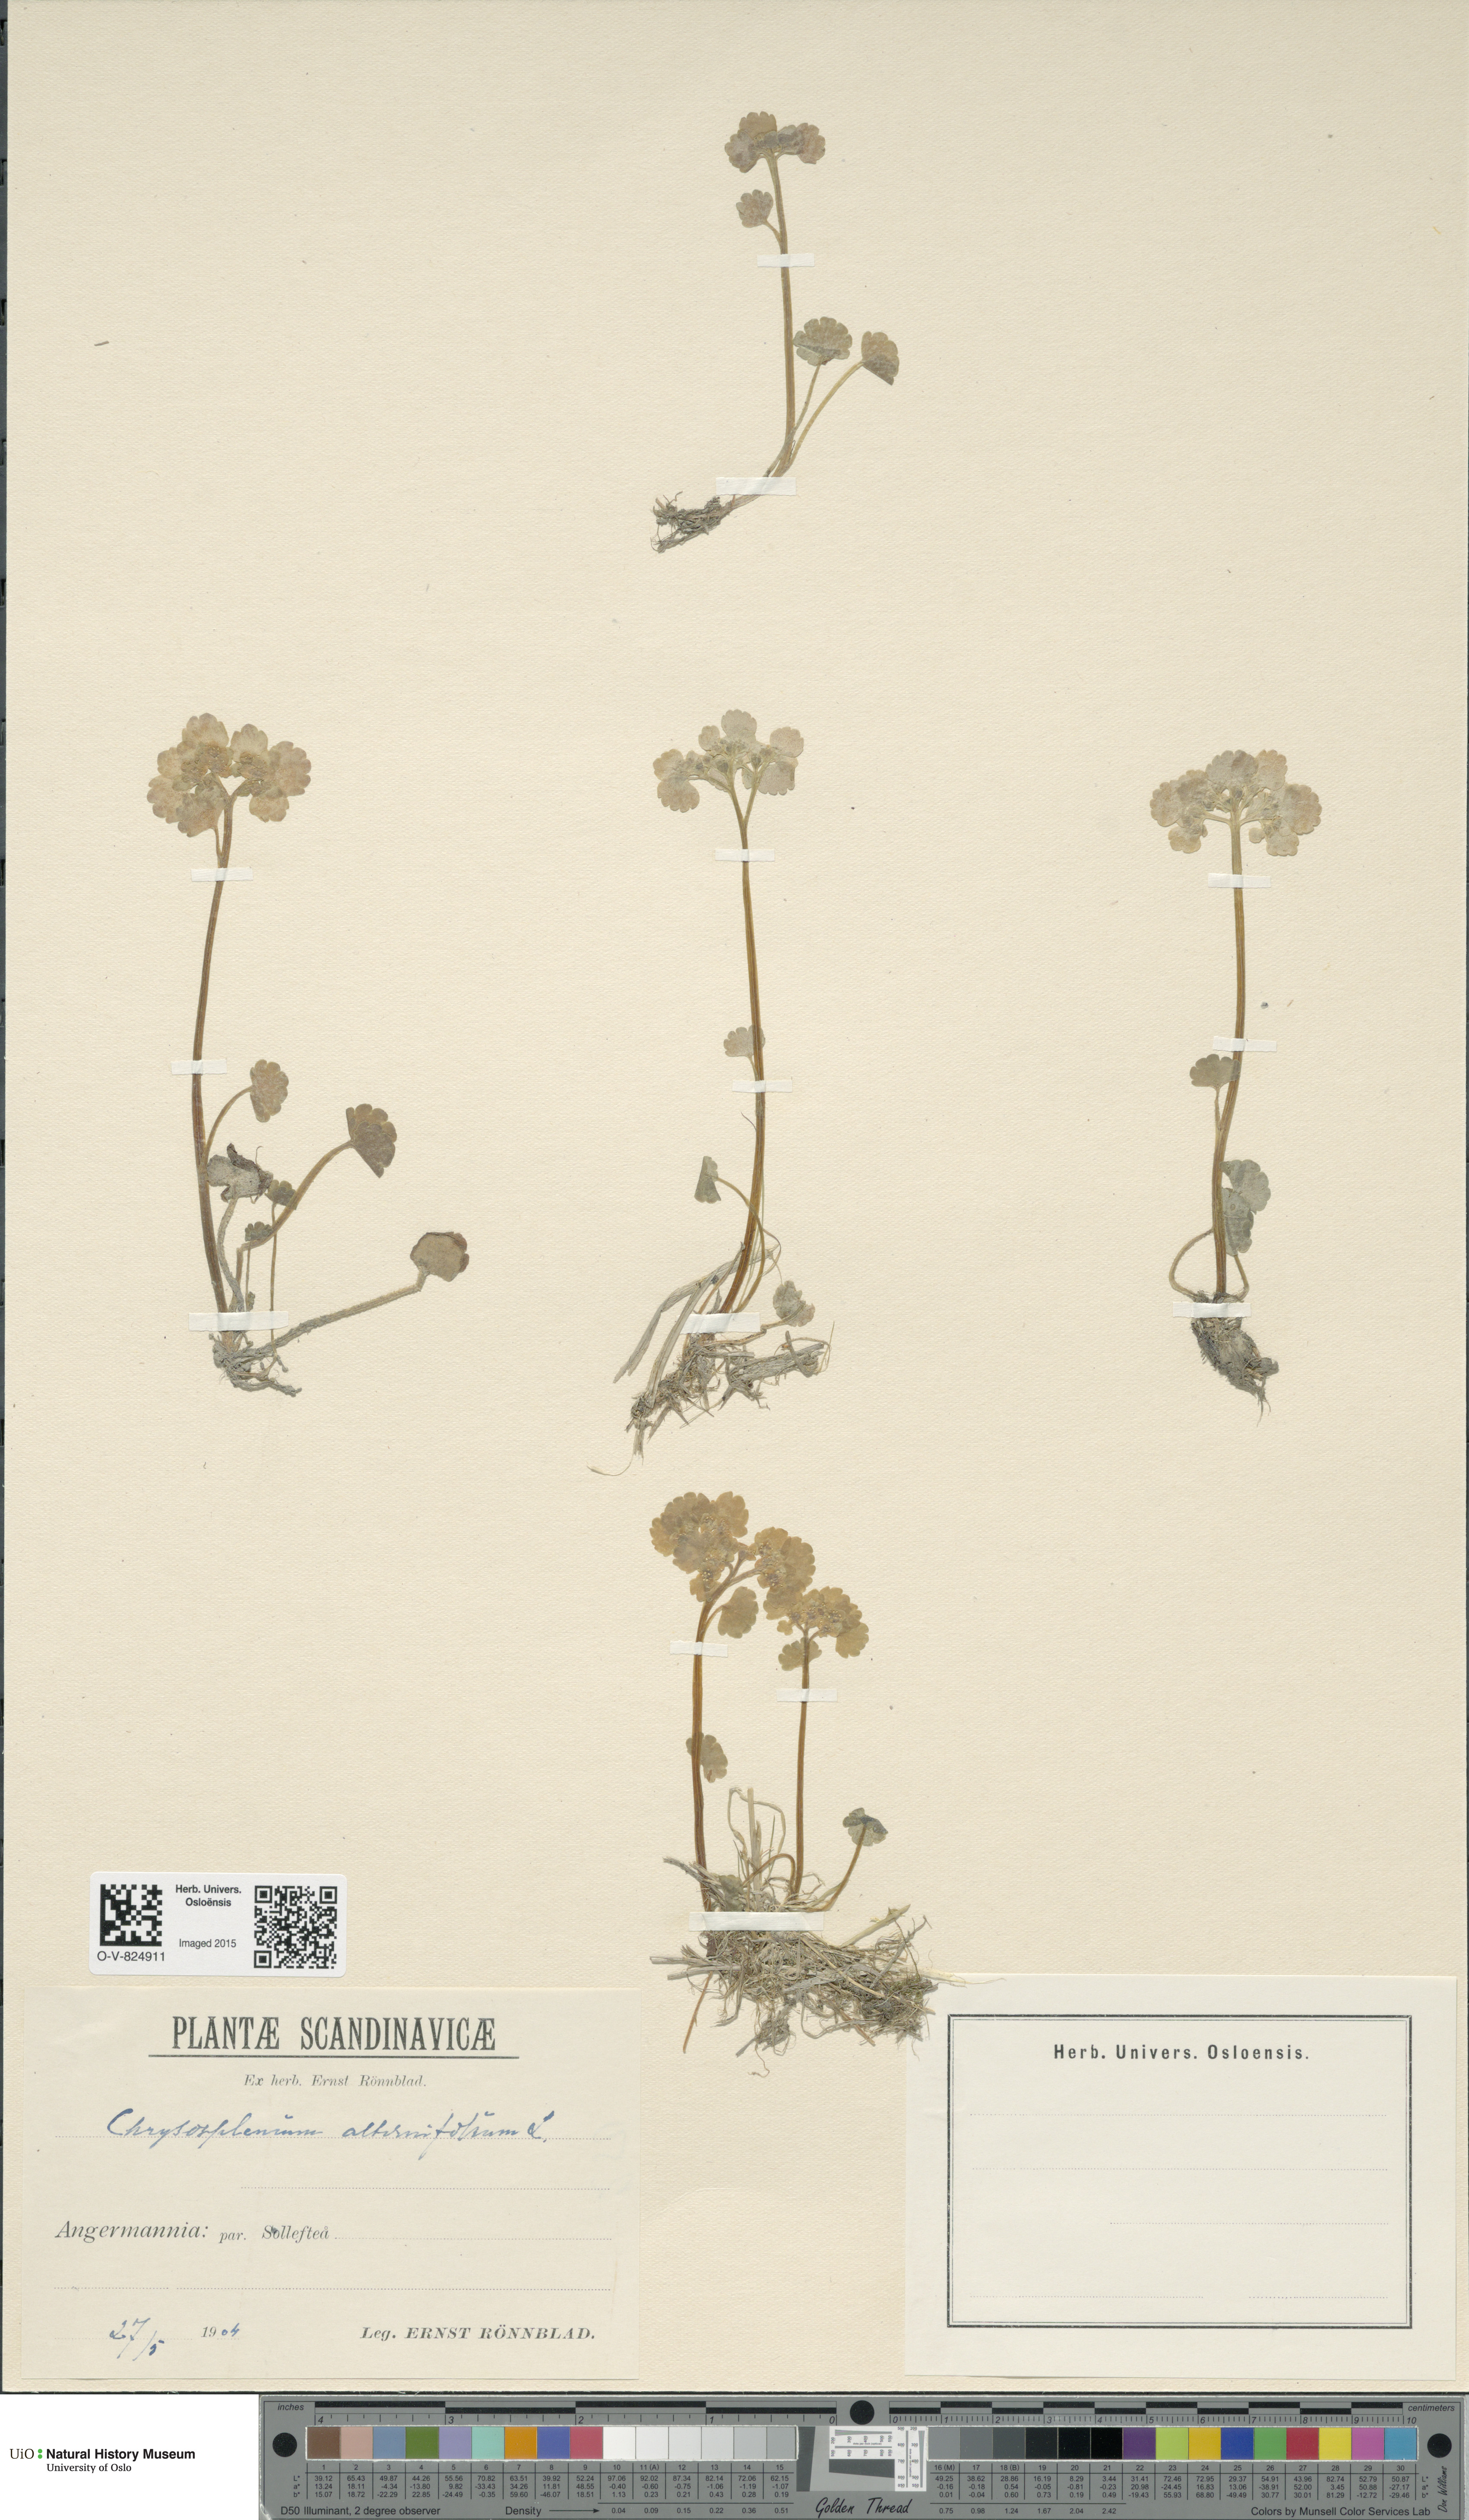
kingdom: Plantae
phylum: Tracheophyta
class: Magnoliopsida
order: Saxifragales
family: Saxifragaceae
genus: Chrysosplenium
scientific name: Chrysosplenium alternifolium
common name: Alternate-leaved golden-saxifrage
